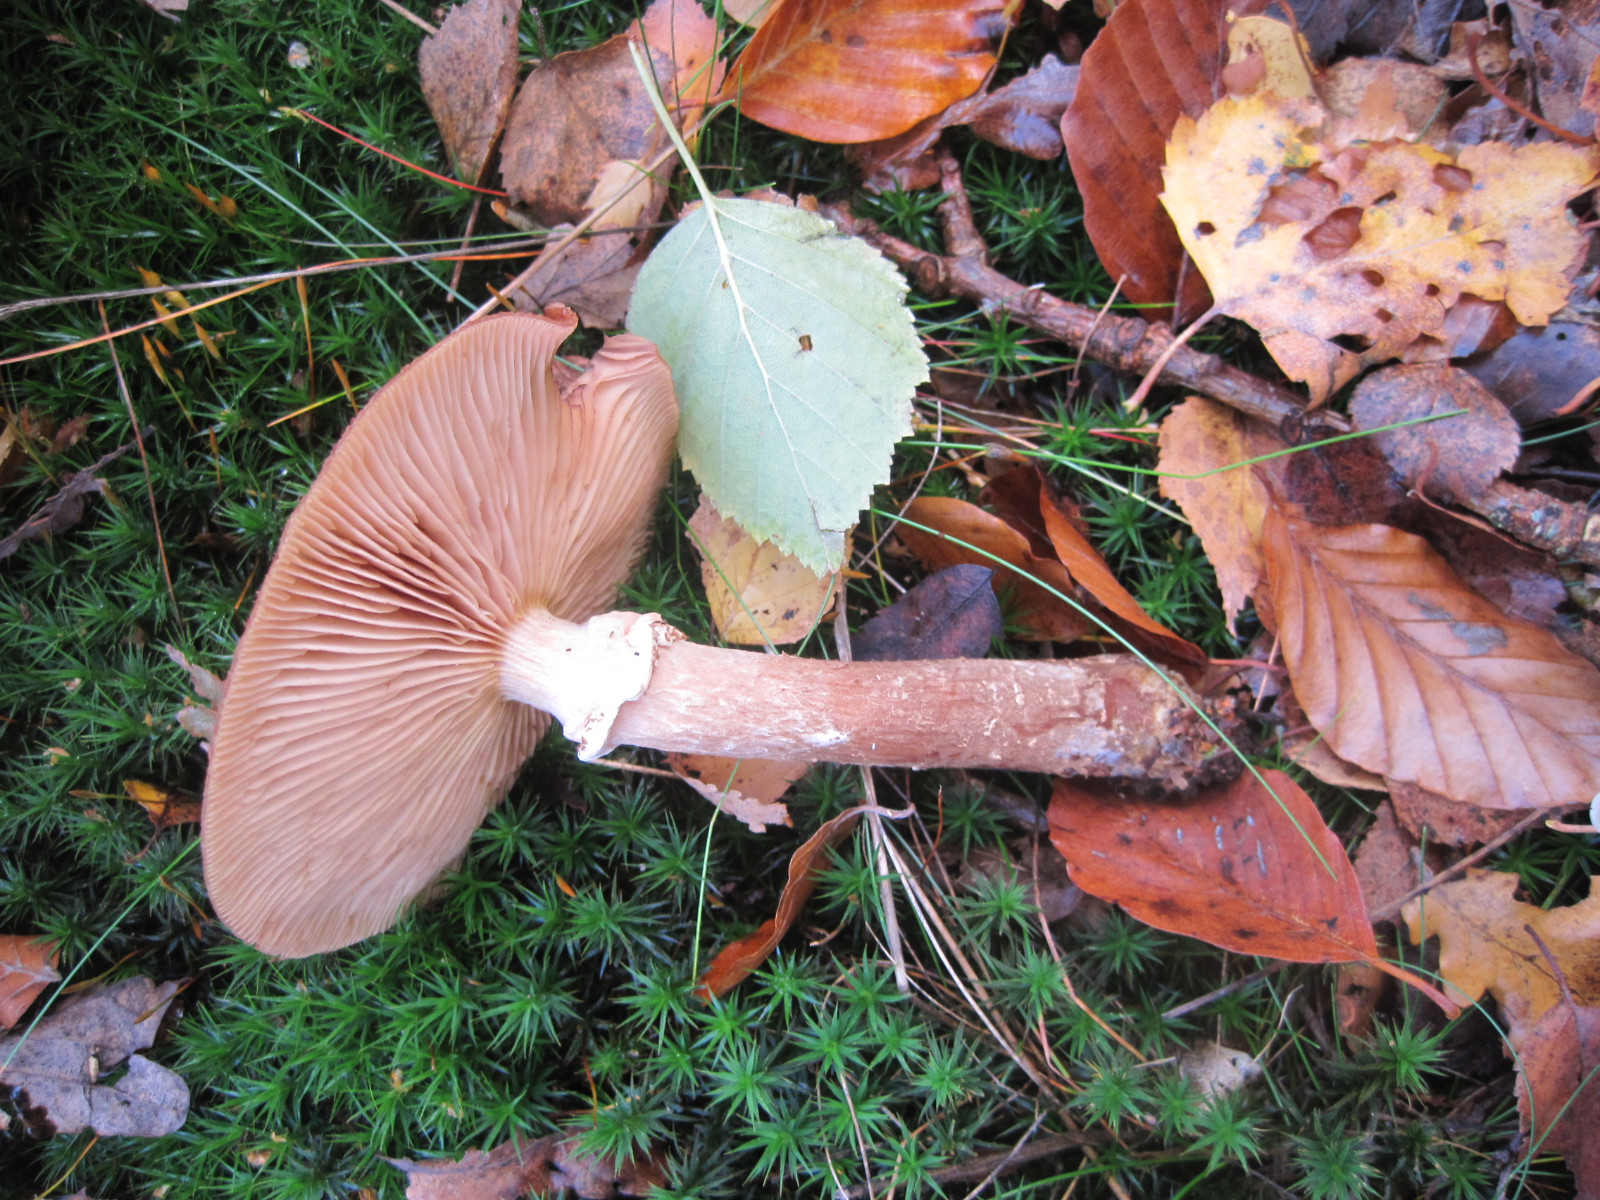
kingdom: Fungi
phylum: Basidiomycota
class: Agaricomycetes
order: Agaricales
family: Physalacriaceae
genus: Armillaria
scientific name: Armillaria ostoyae
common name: mørk honningsvamp
